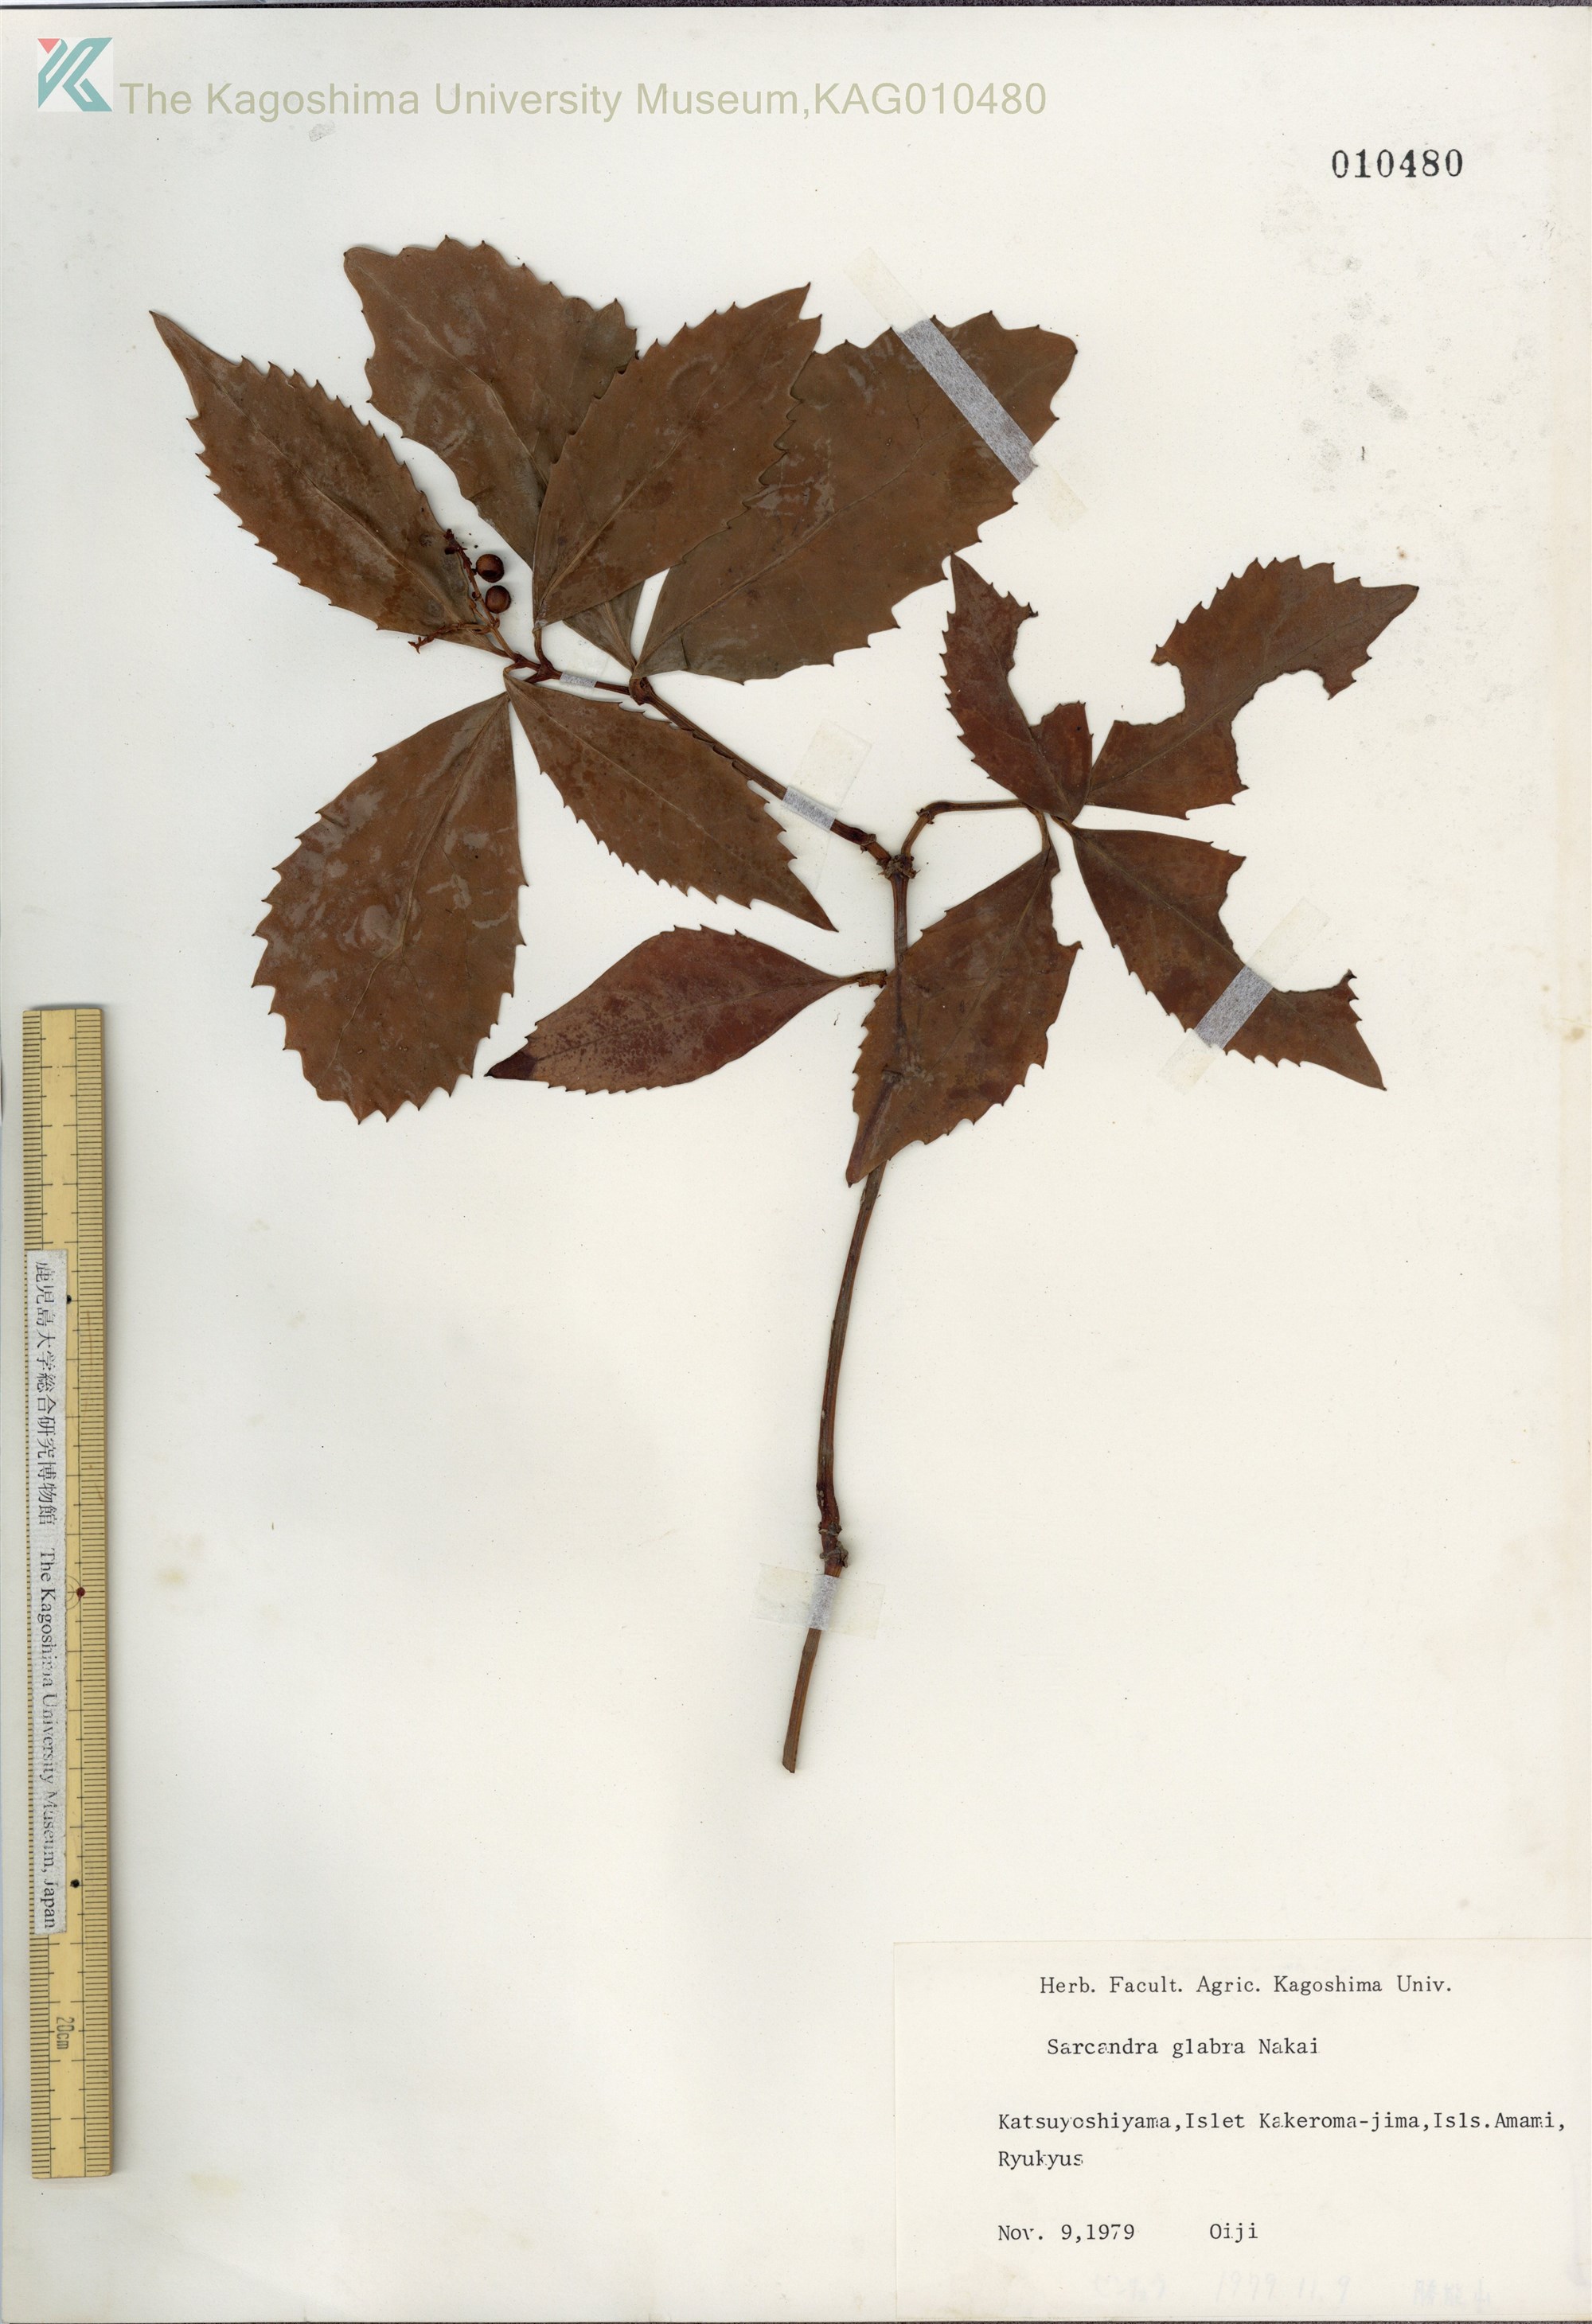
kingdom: Plantae
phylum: Tracheophyta
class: Magnoliopsida
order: Chloranthales
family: Chloranthaceae
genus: Sarcandra
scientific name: Sarcandra glabra
